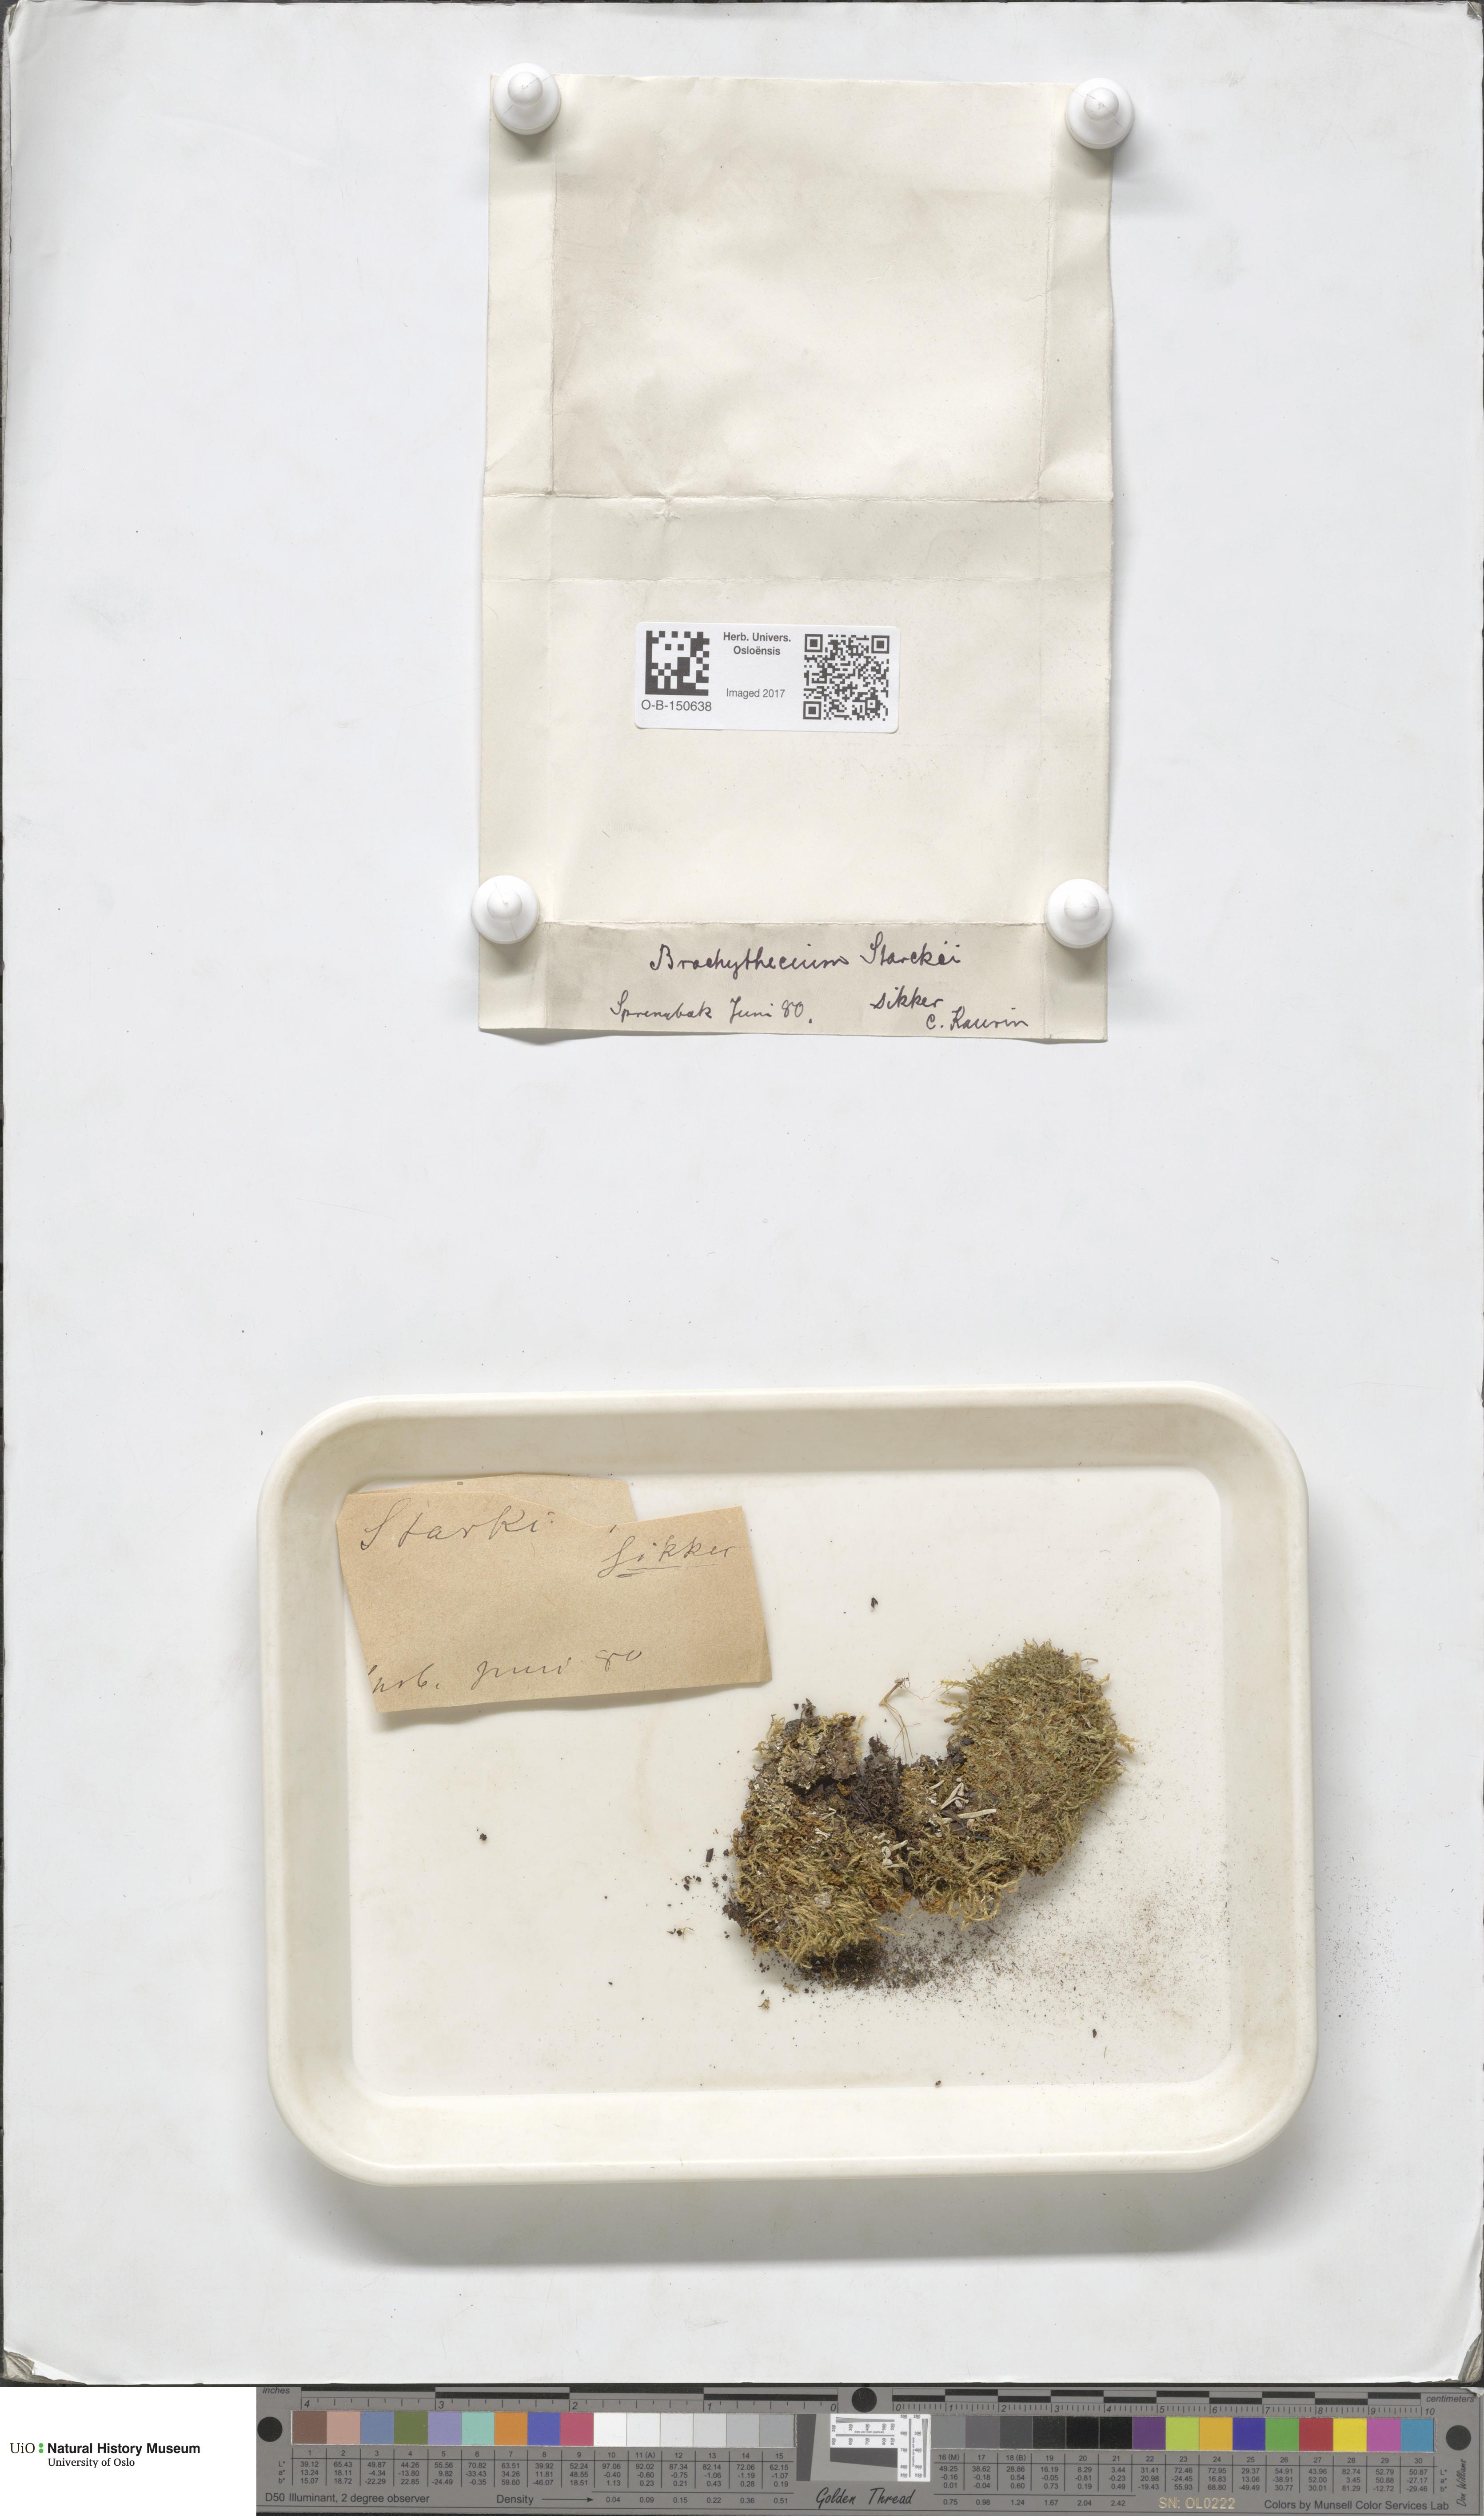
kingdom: Plantae
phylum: Bryophyta
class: Bryopsida
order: Hypnales
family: Brachytheciaceae
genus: Sciuro-hypnum
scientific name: Sciuro-hypnum starkei
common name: Starke's feather-moss
